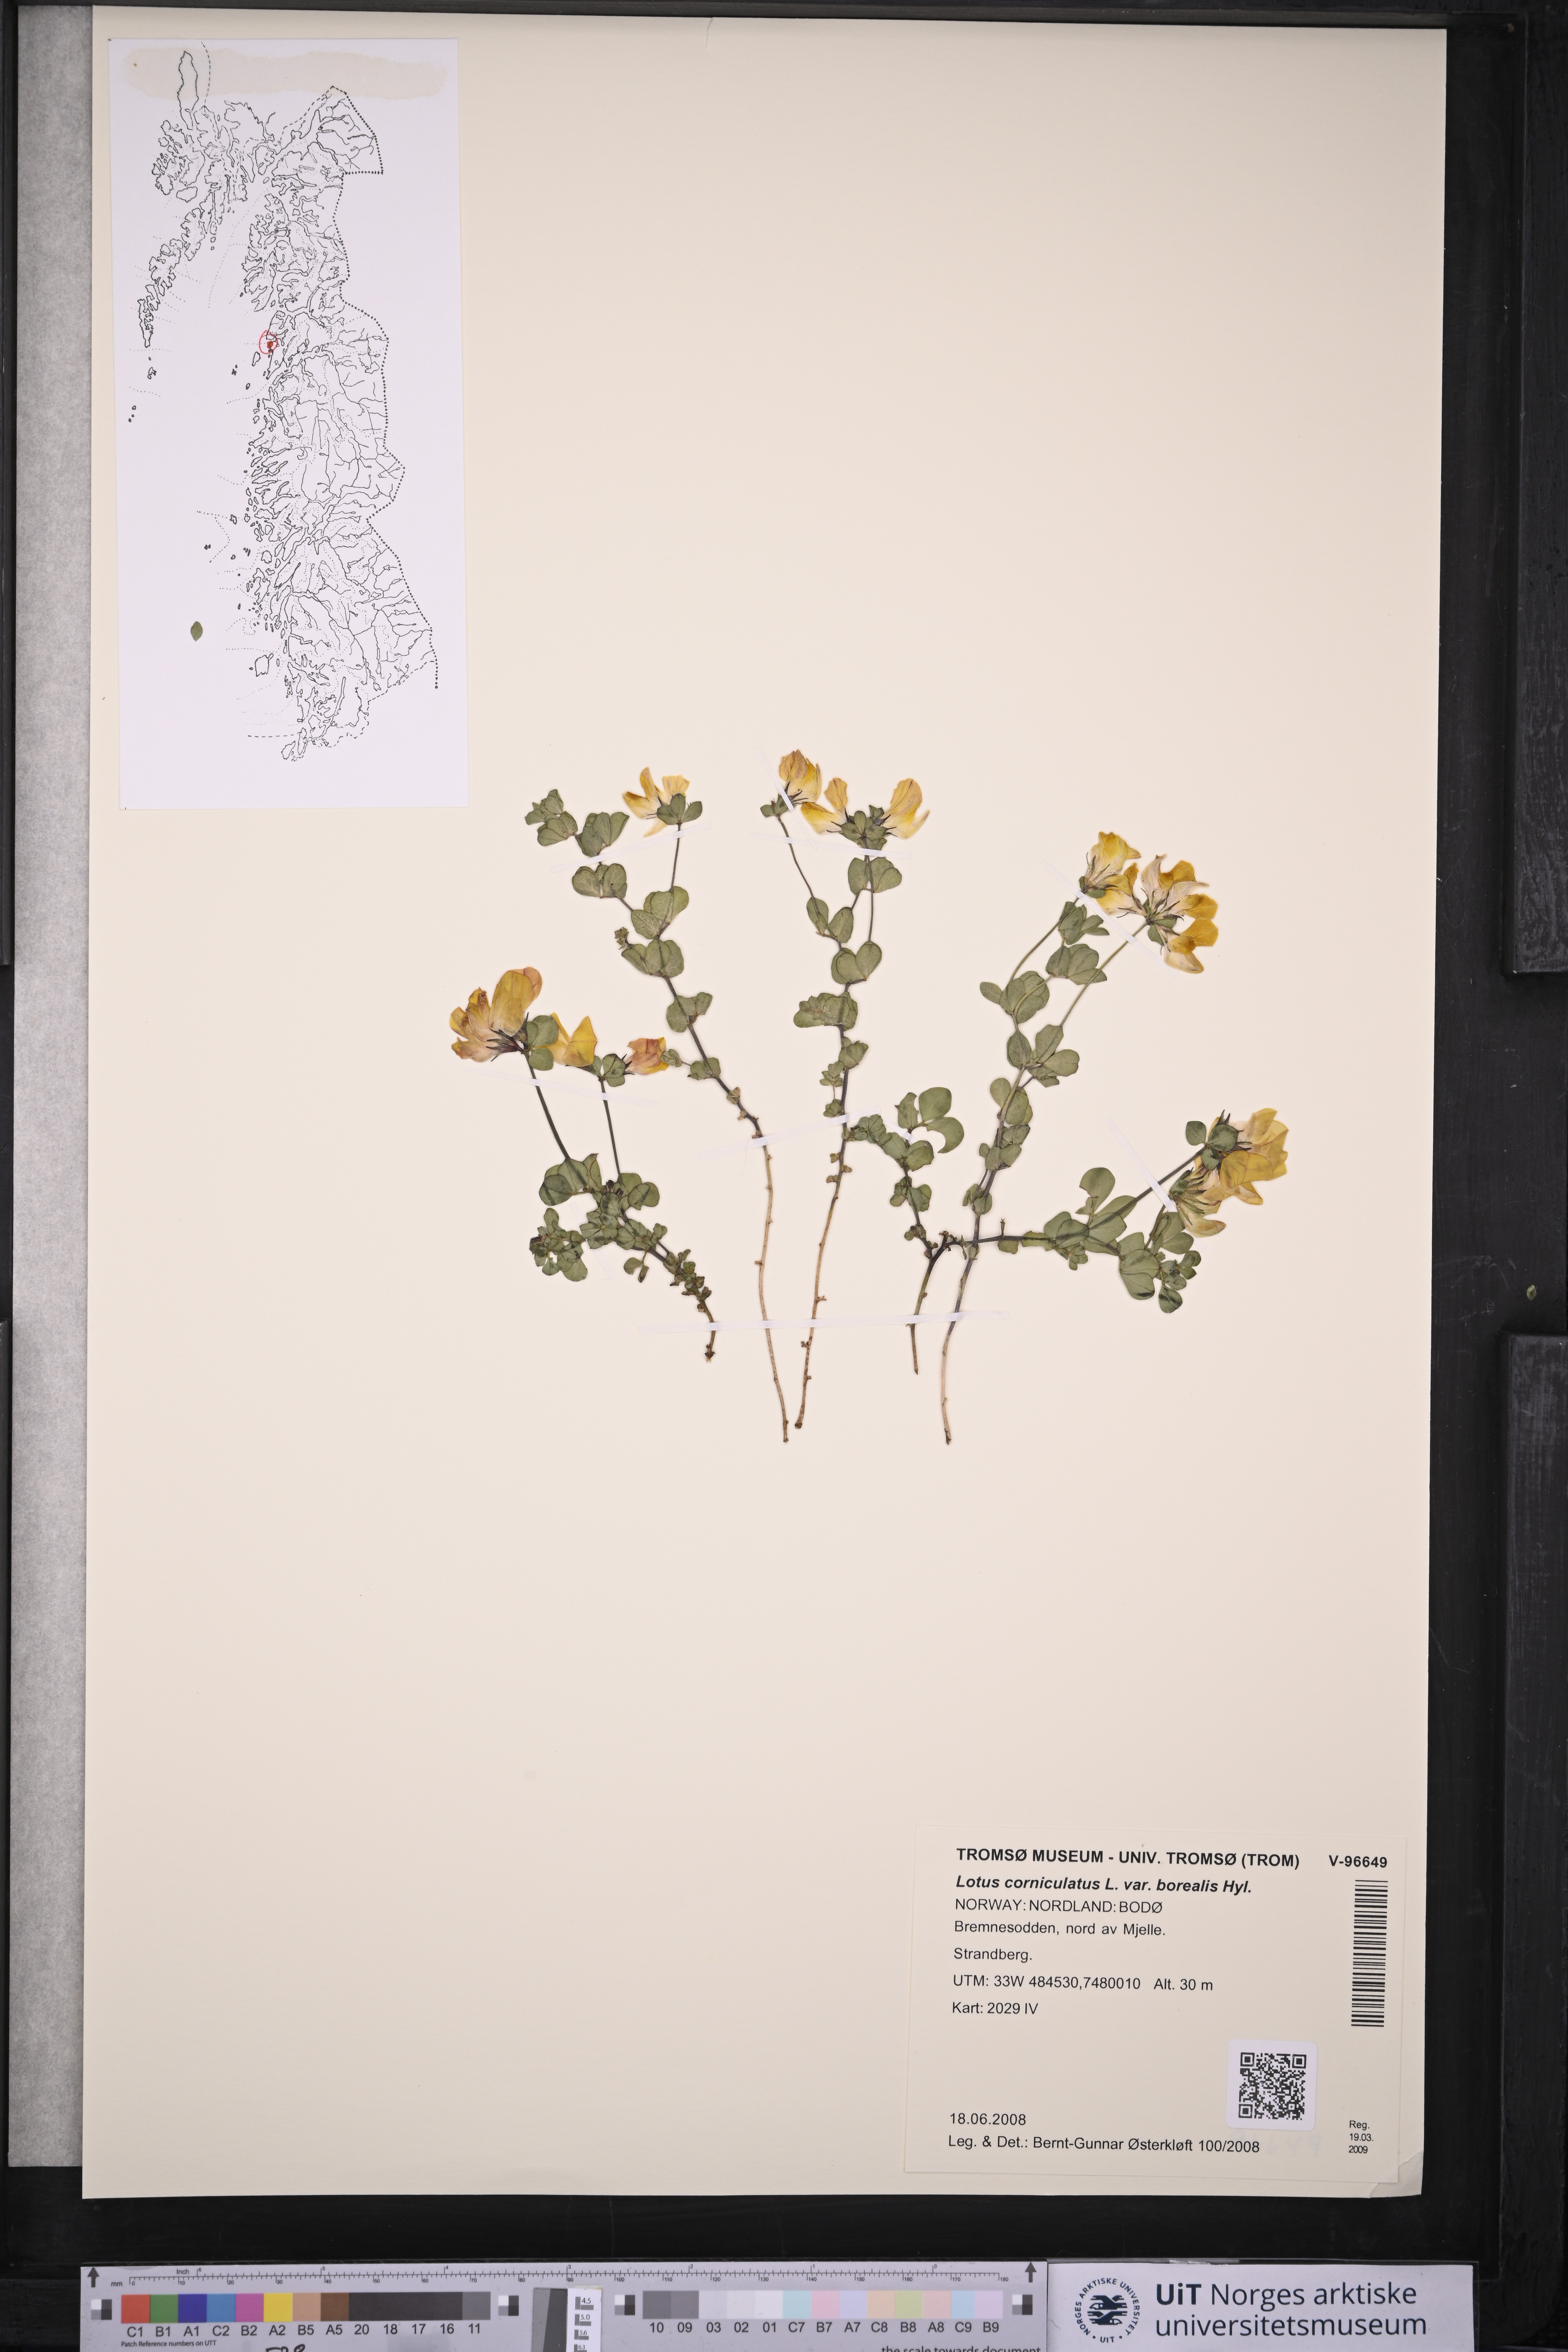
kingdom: Plantae
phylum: Tracheophyta
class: Magnoliopsida
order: Fabales
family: Fabaceae
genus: Lotus
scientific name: Lotus corniculatus
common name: Common bird's-foot-trefoil
